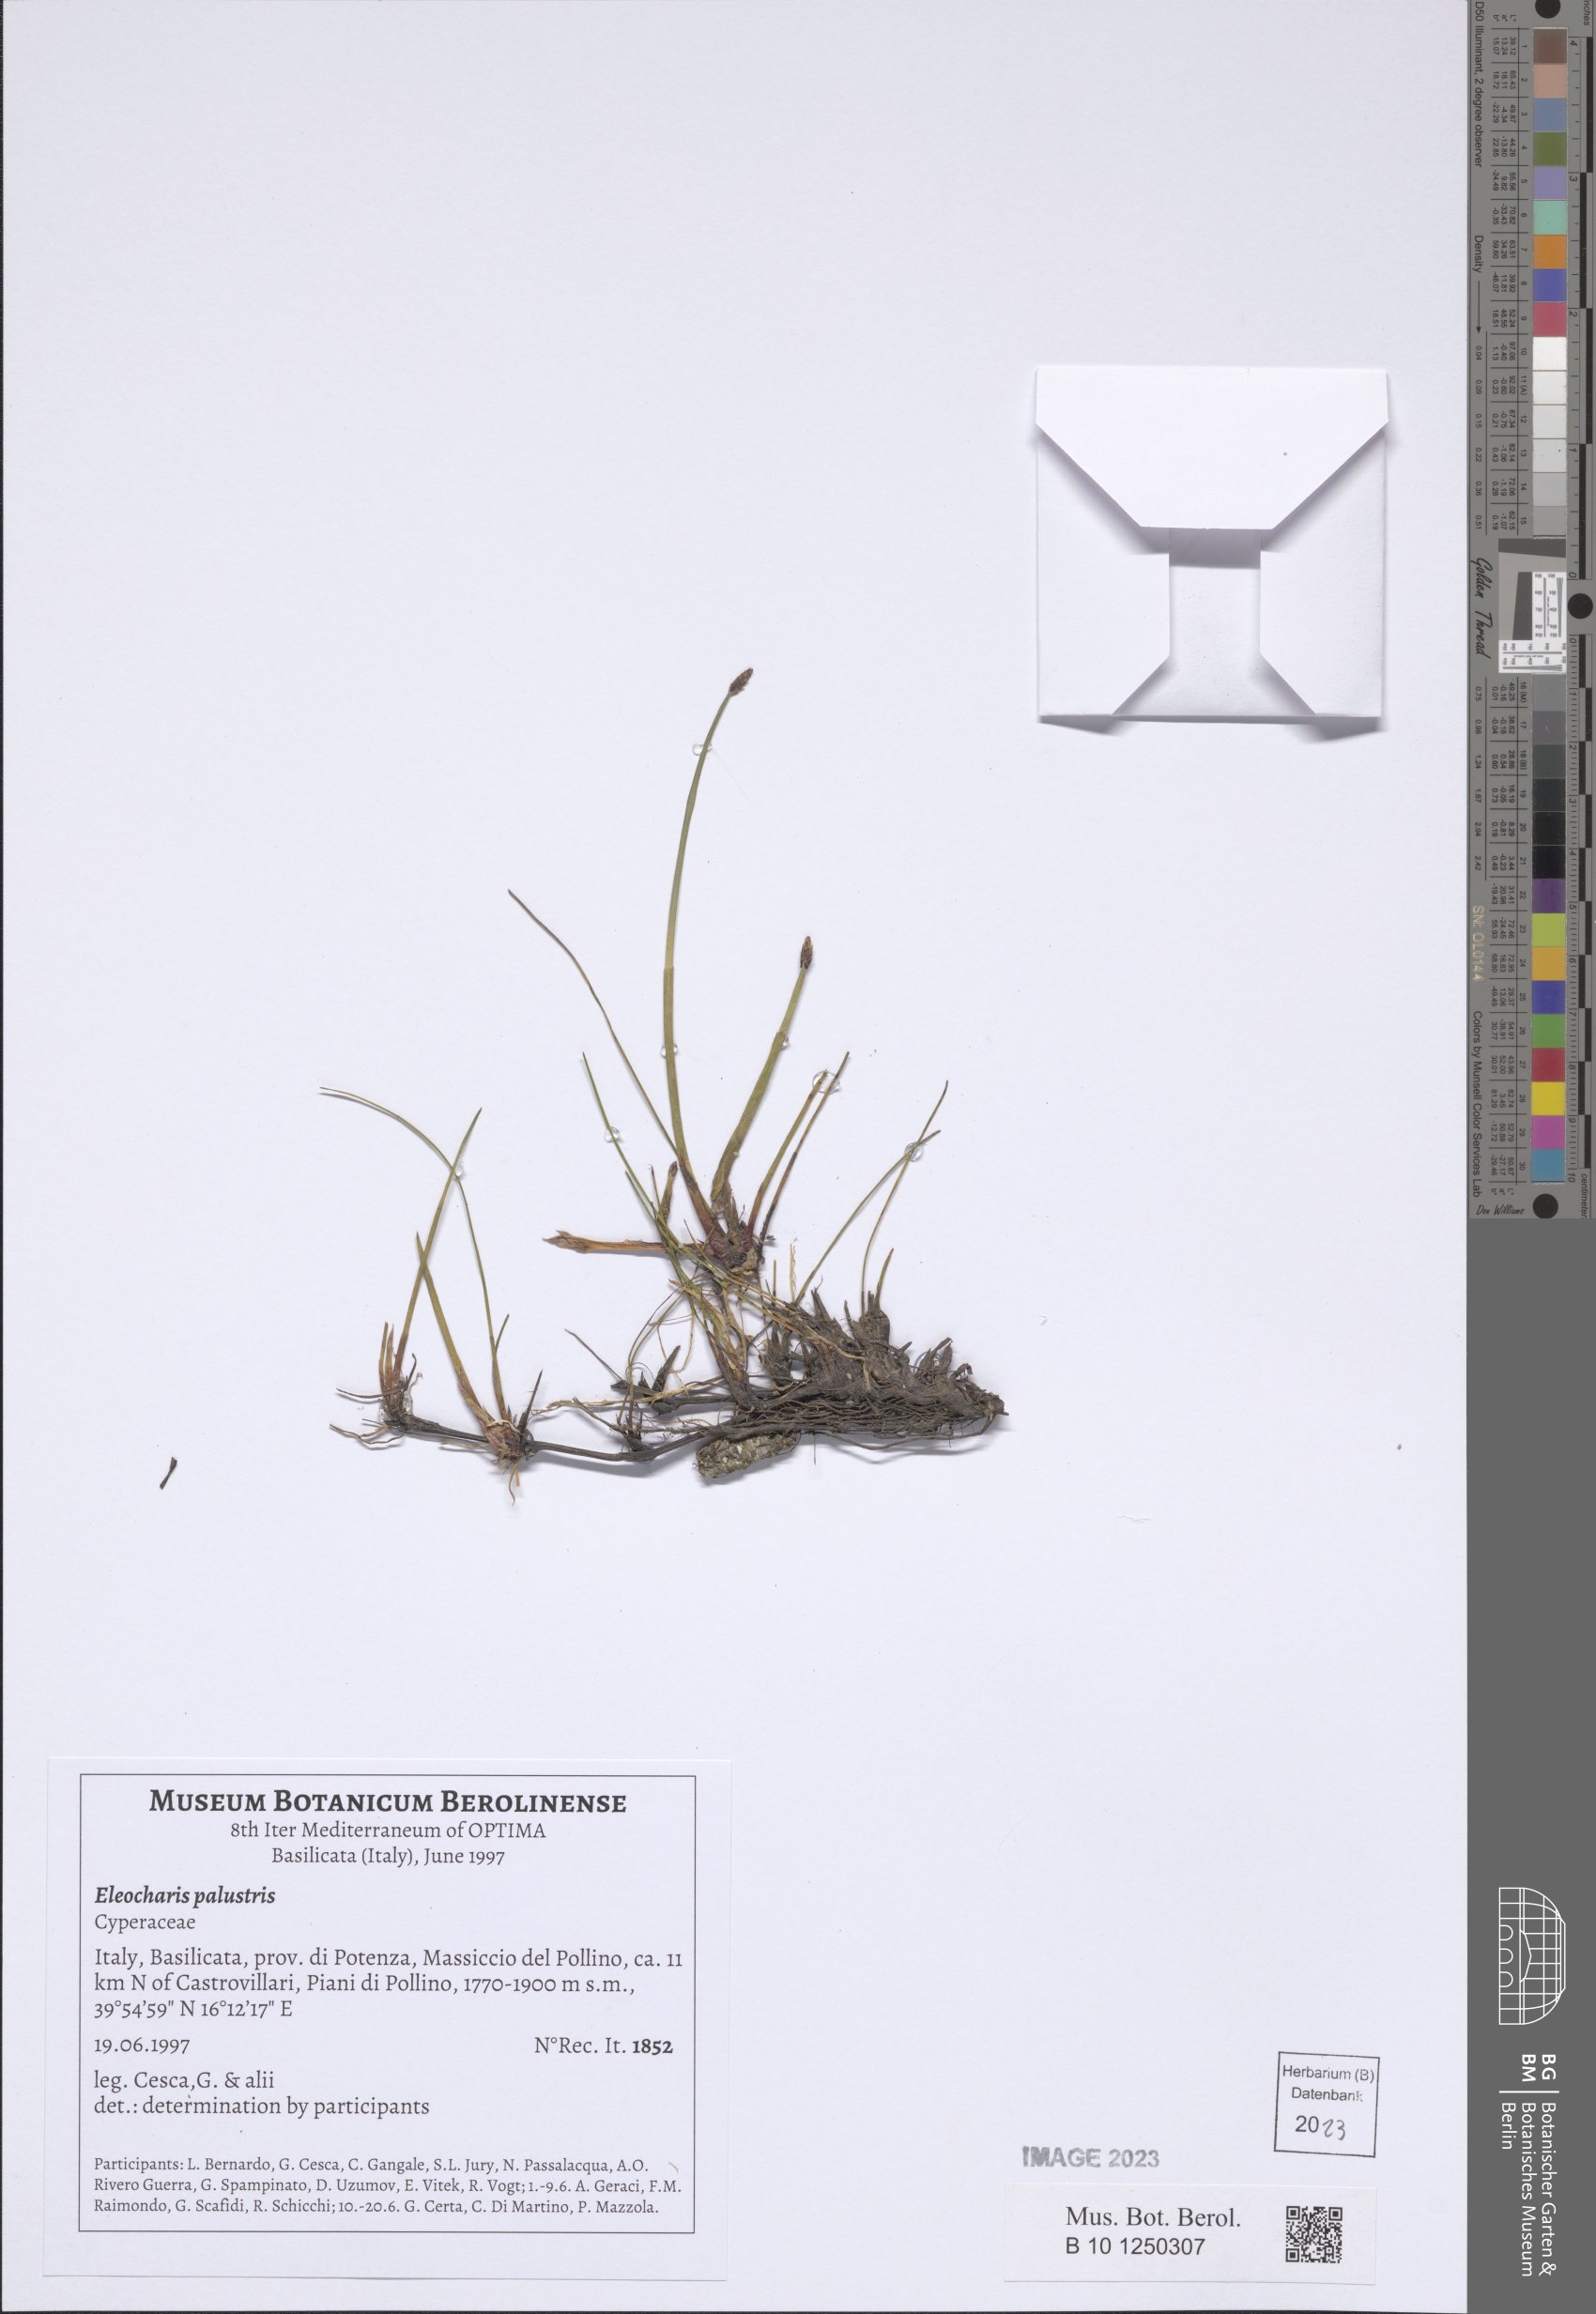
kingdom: Plantae
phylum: Tracheophyta
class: Liliopsida
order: Poales
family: Cyperaceae
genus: Eleocharis
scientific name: Eleocharis palustris
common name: Common spike-rush
